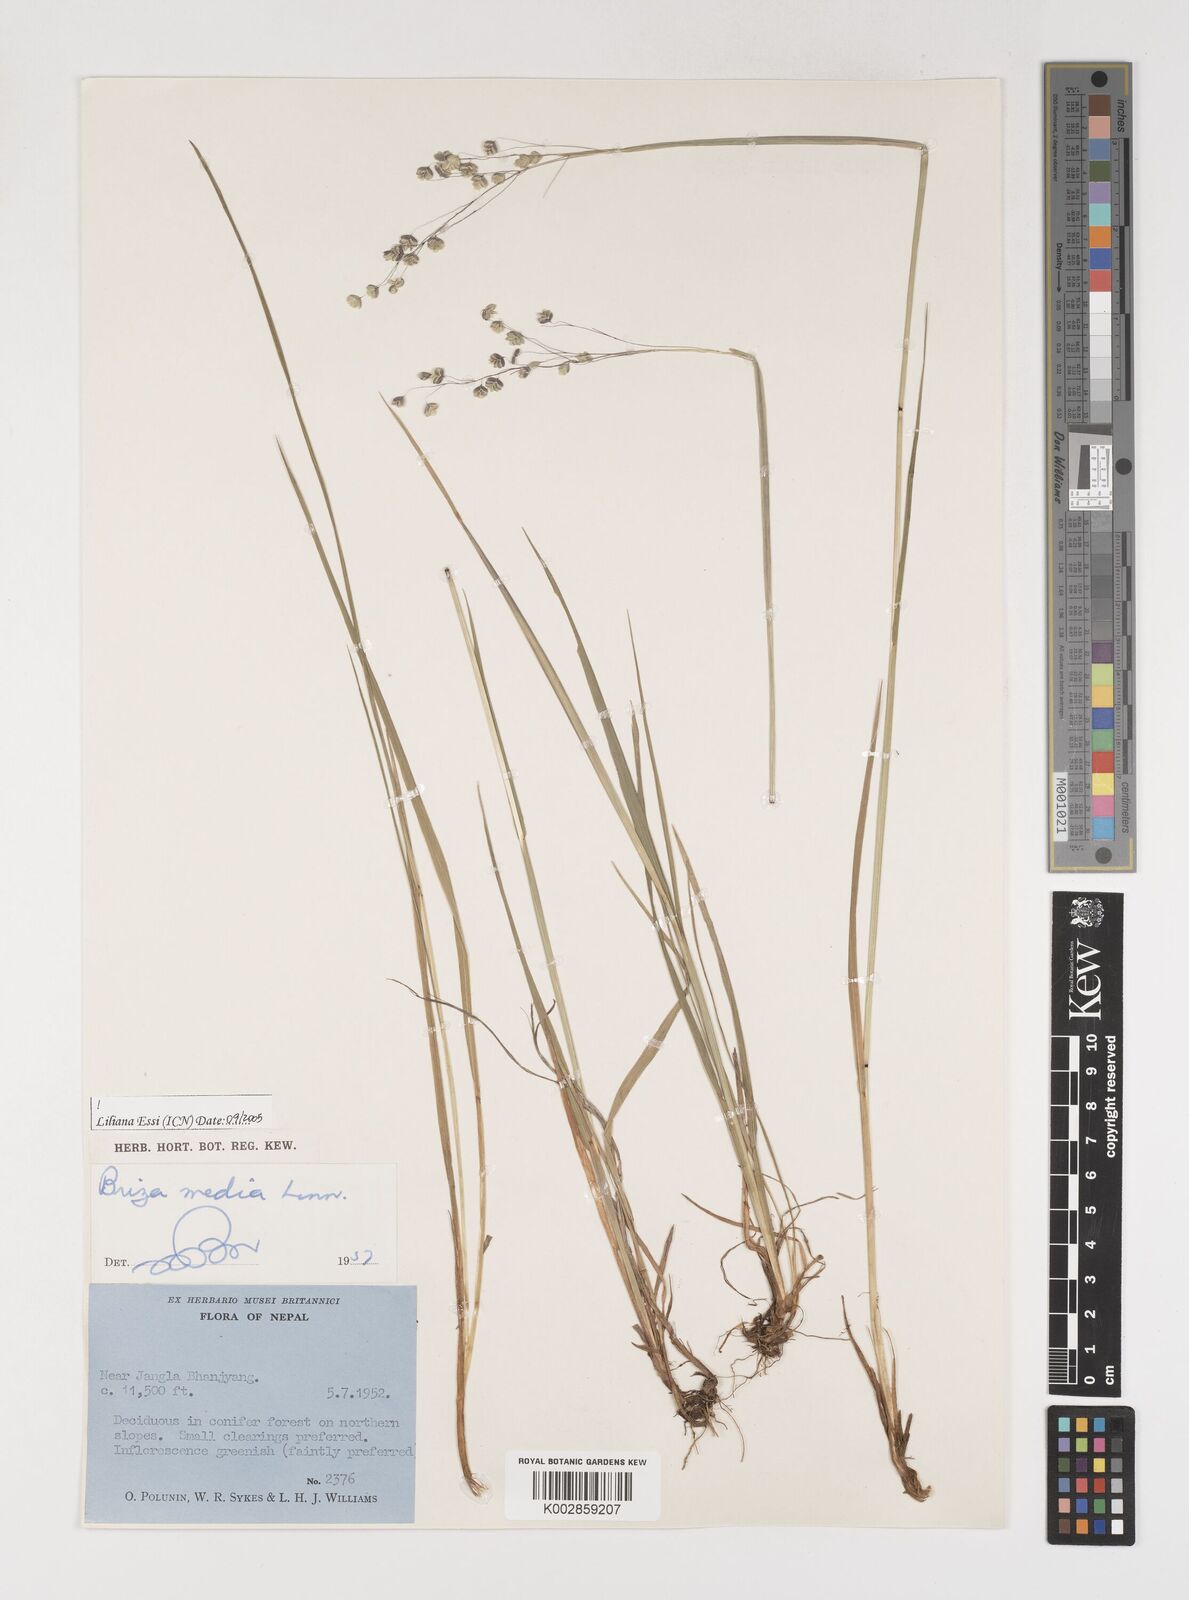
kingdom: Plantae
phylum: Tracheophyta
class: Liliopsida
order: Poales
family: Poaceae
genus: Briza
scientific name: Briza media
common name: Quaking grass
